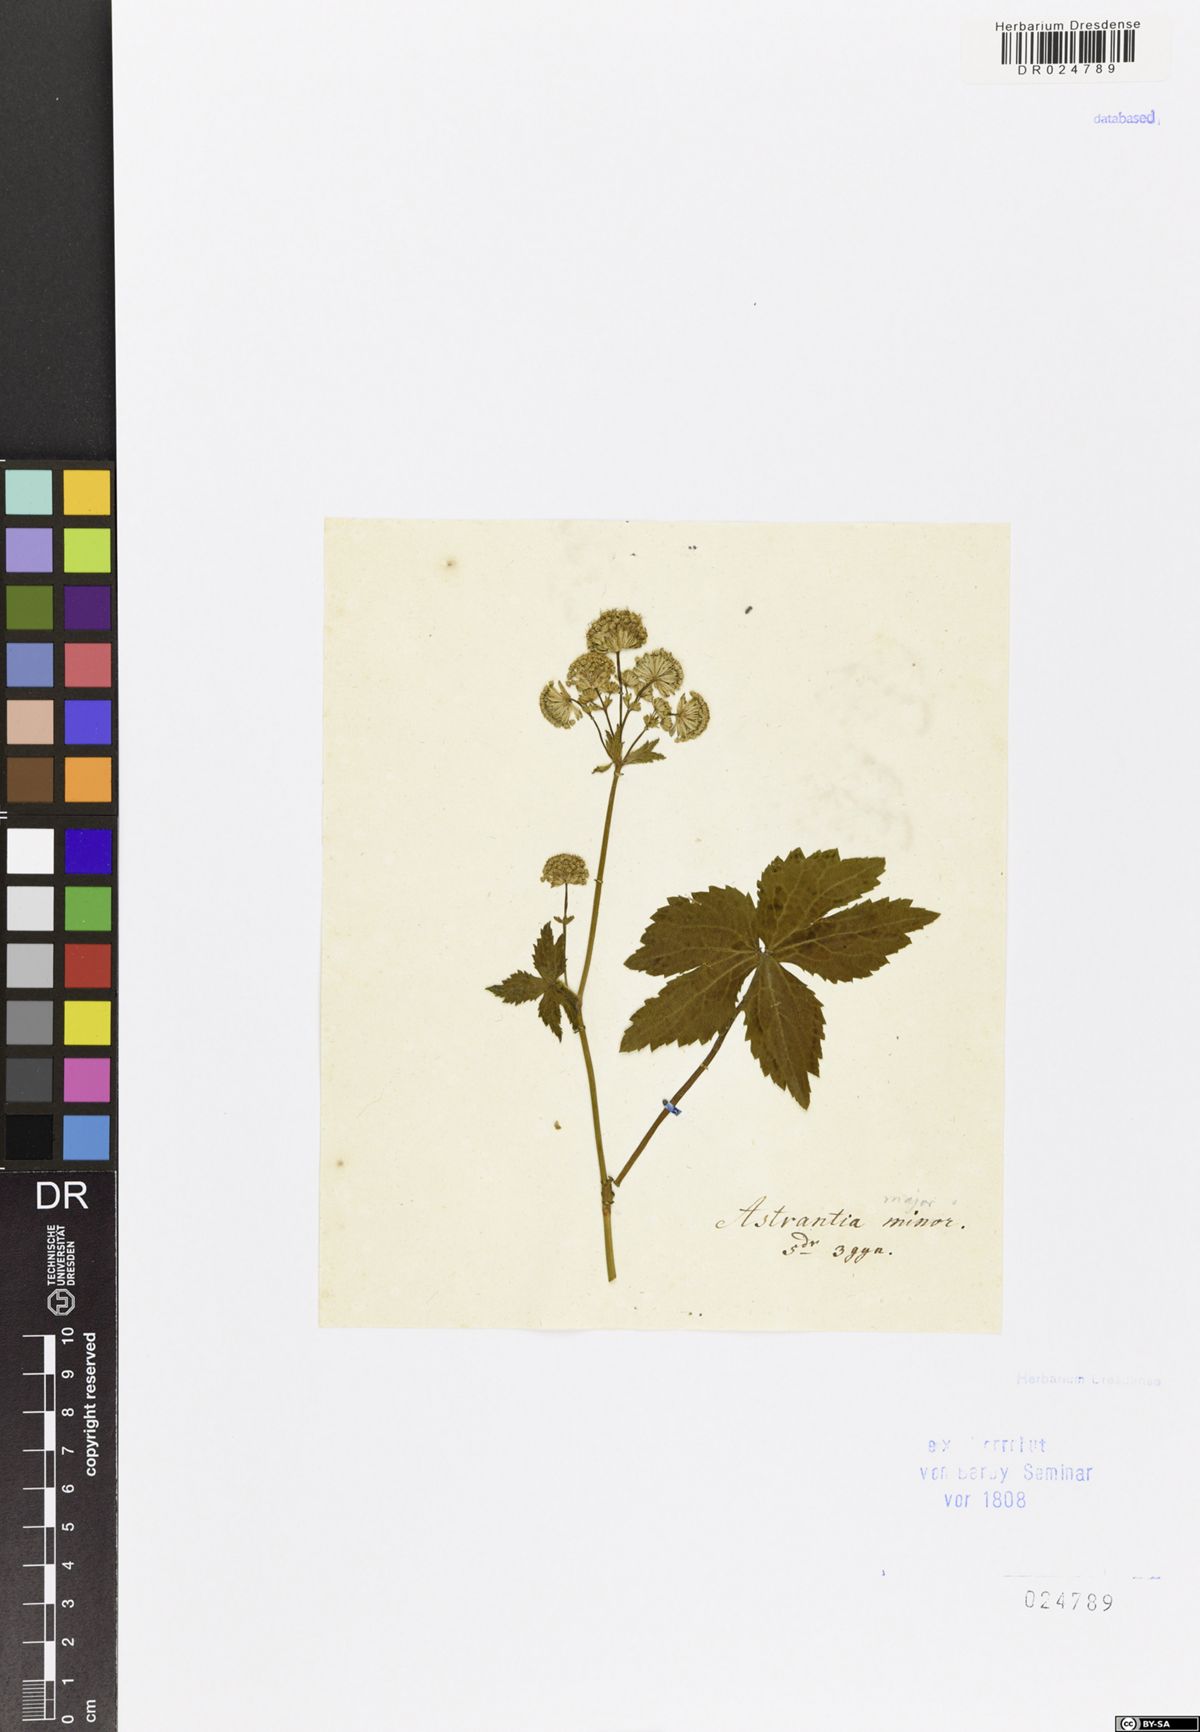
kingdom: Plantae
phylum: Tracheophyta
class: Magnoliopsida
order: Apiales
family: Apiaceae
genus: Astrantia
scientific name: Astrantia major
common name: Greater masterwort
